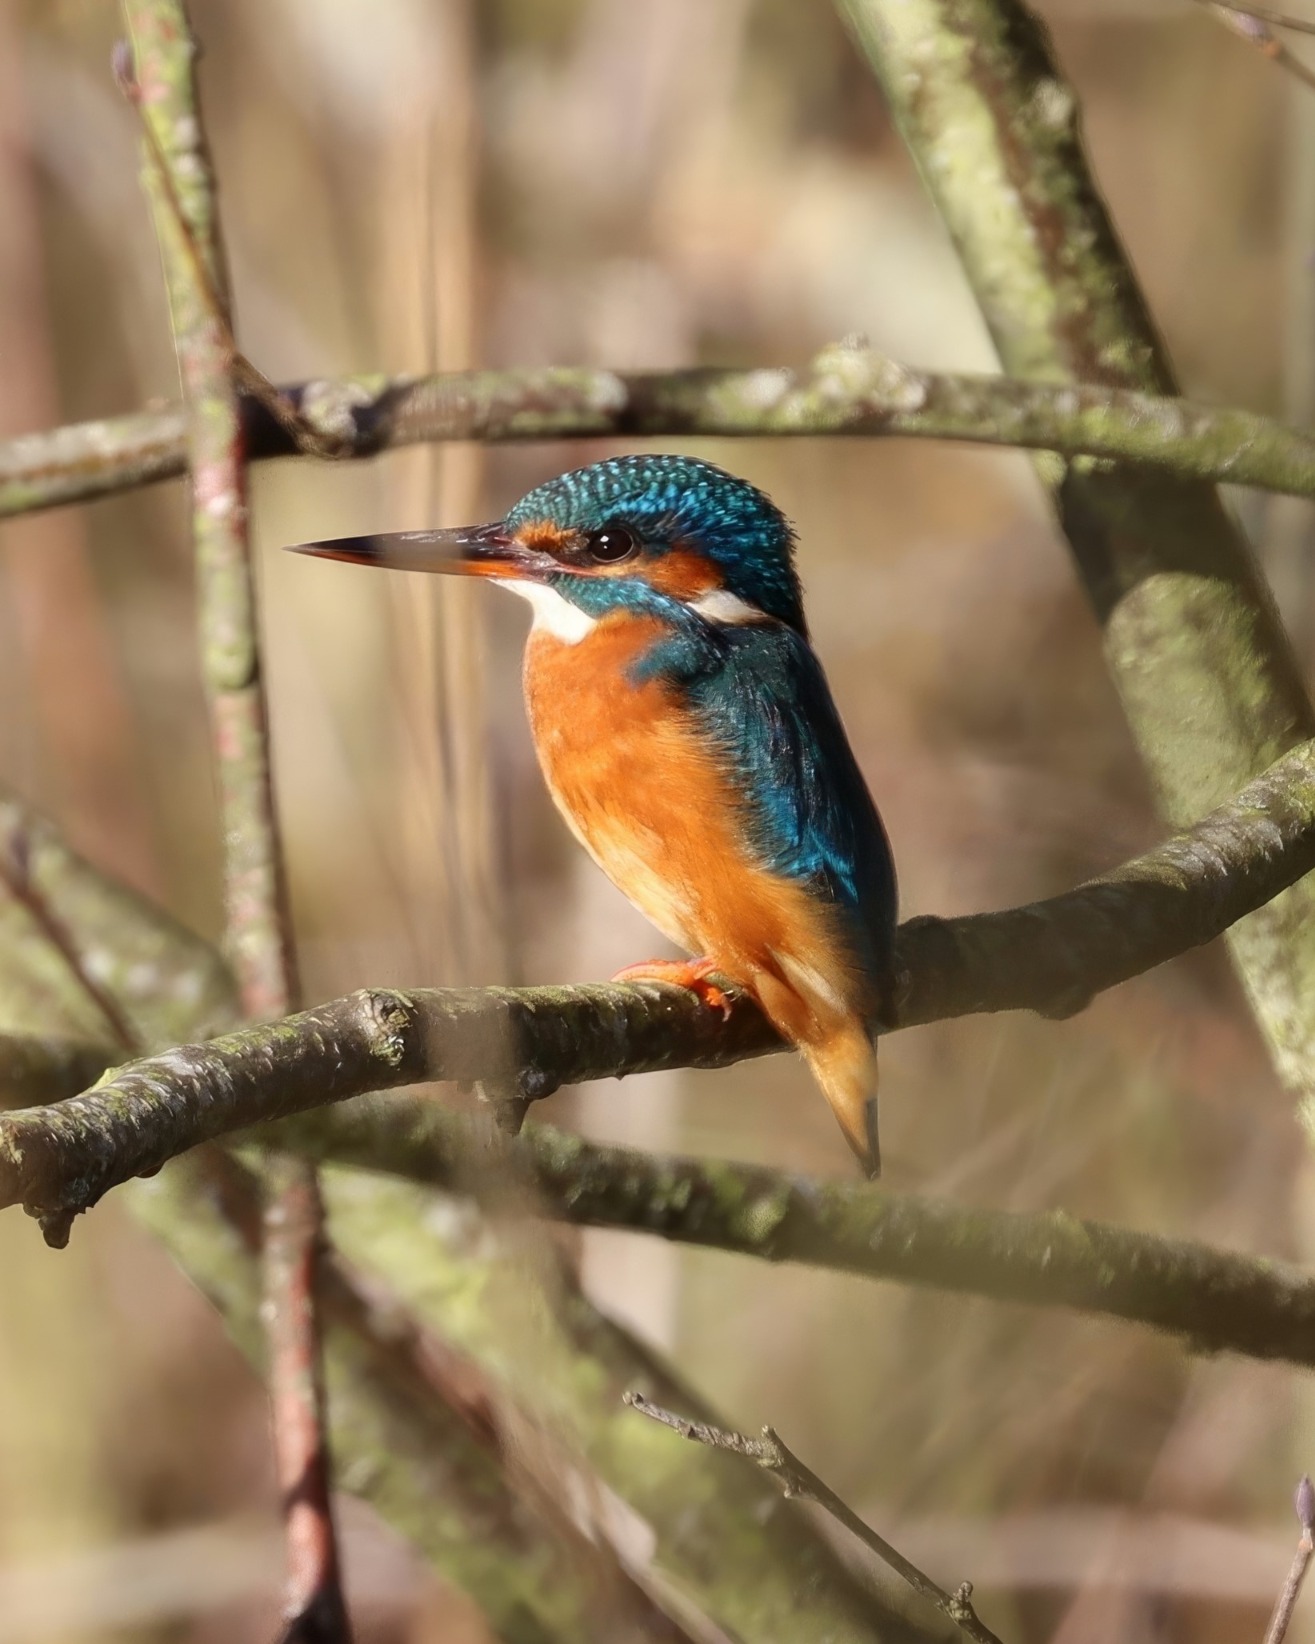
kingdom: Animalia
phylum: Chordata
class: Aves
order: Coraciiformes
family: Alcedinidae
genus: Alcedo
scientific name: Alcedo atthis
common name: Isfugl
